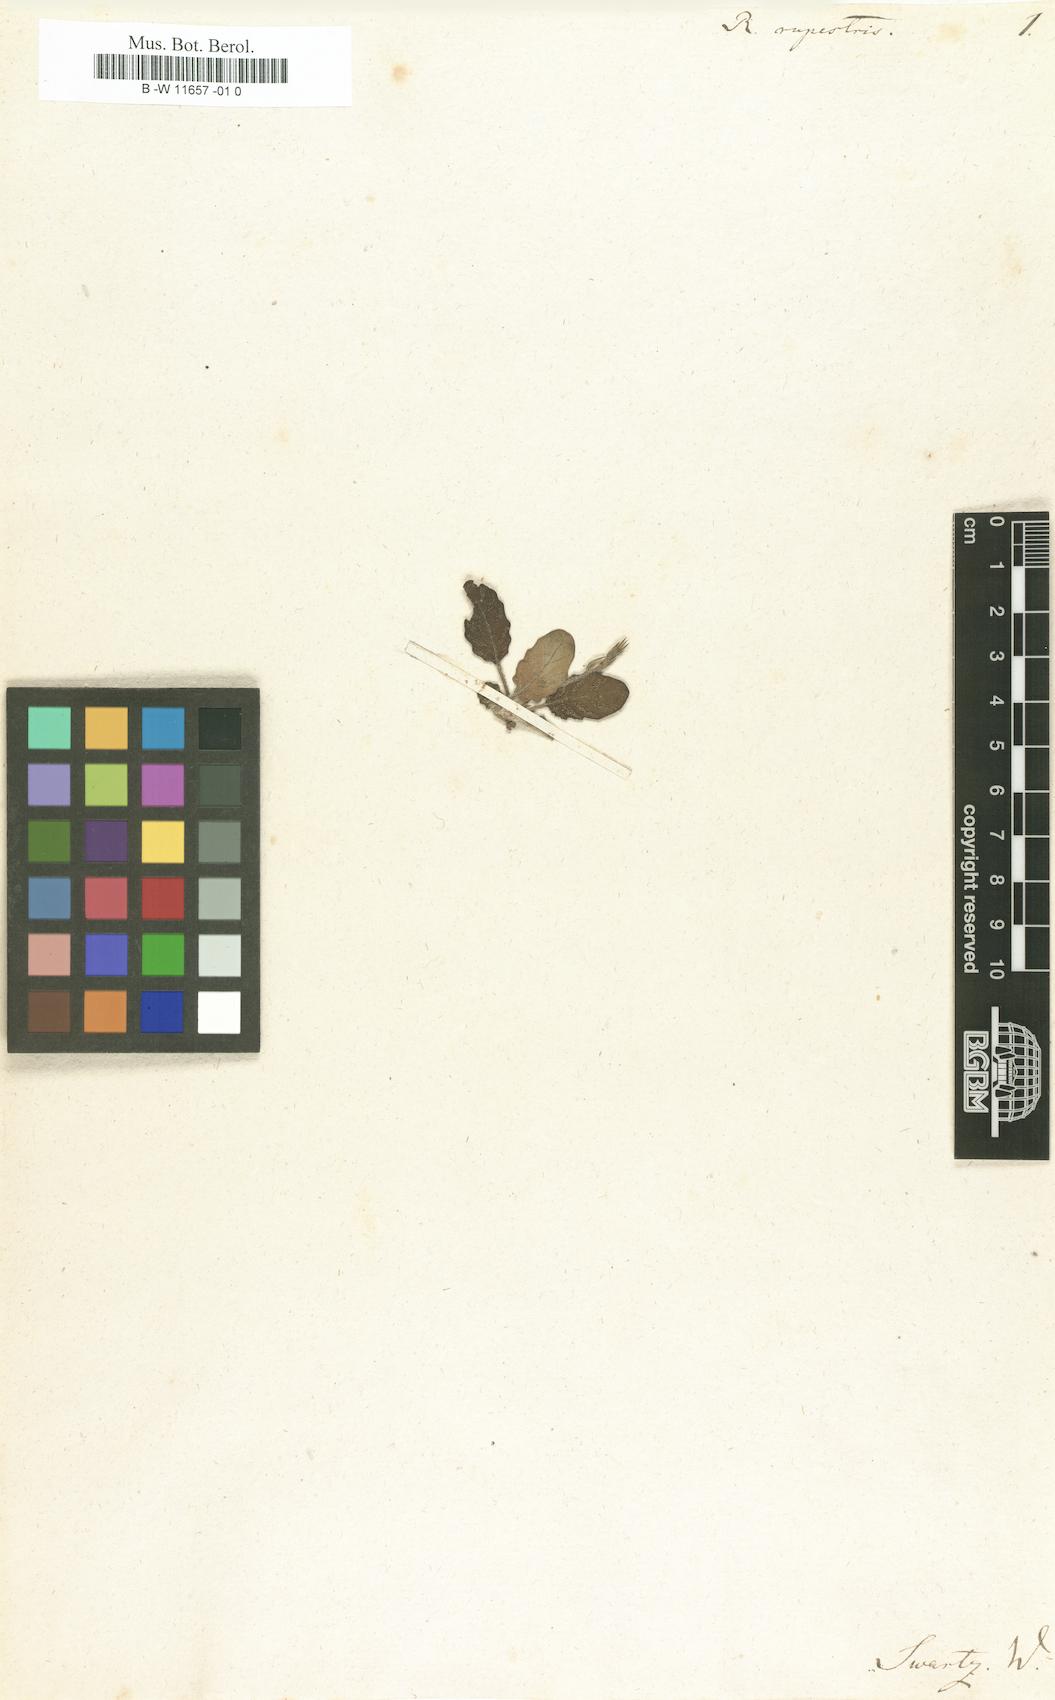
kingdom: Plantae
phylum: Tracheophyta
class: Magnoliopsida
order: Lamiales
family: Acanthaceae
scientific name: Acanthaceae
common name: Acanthaceae
